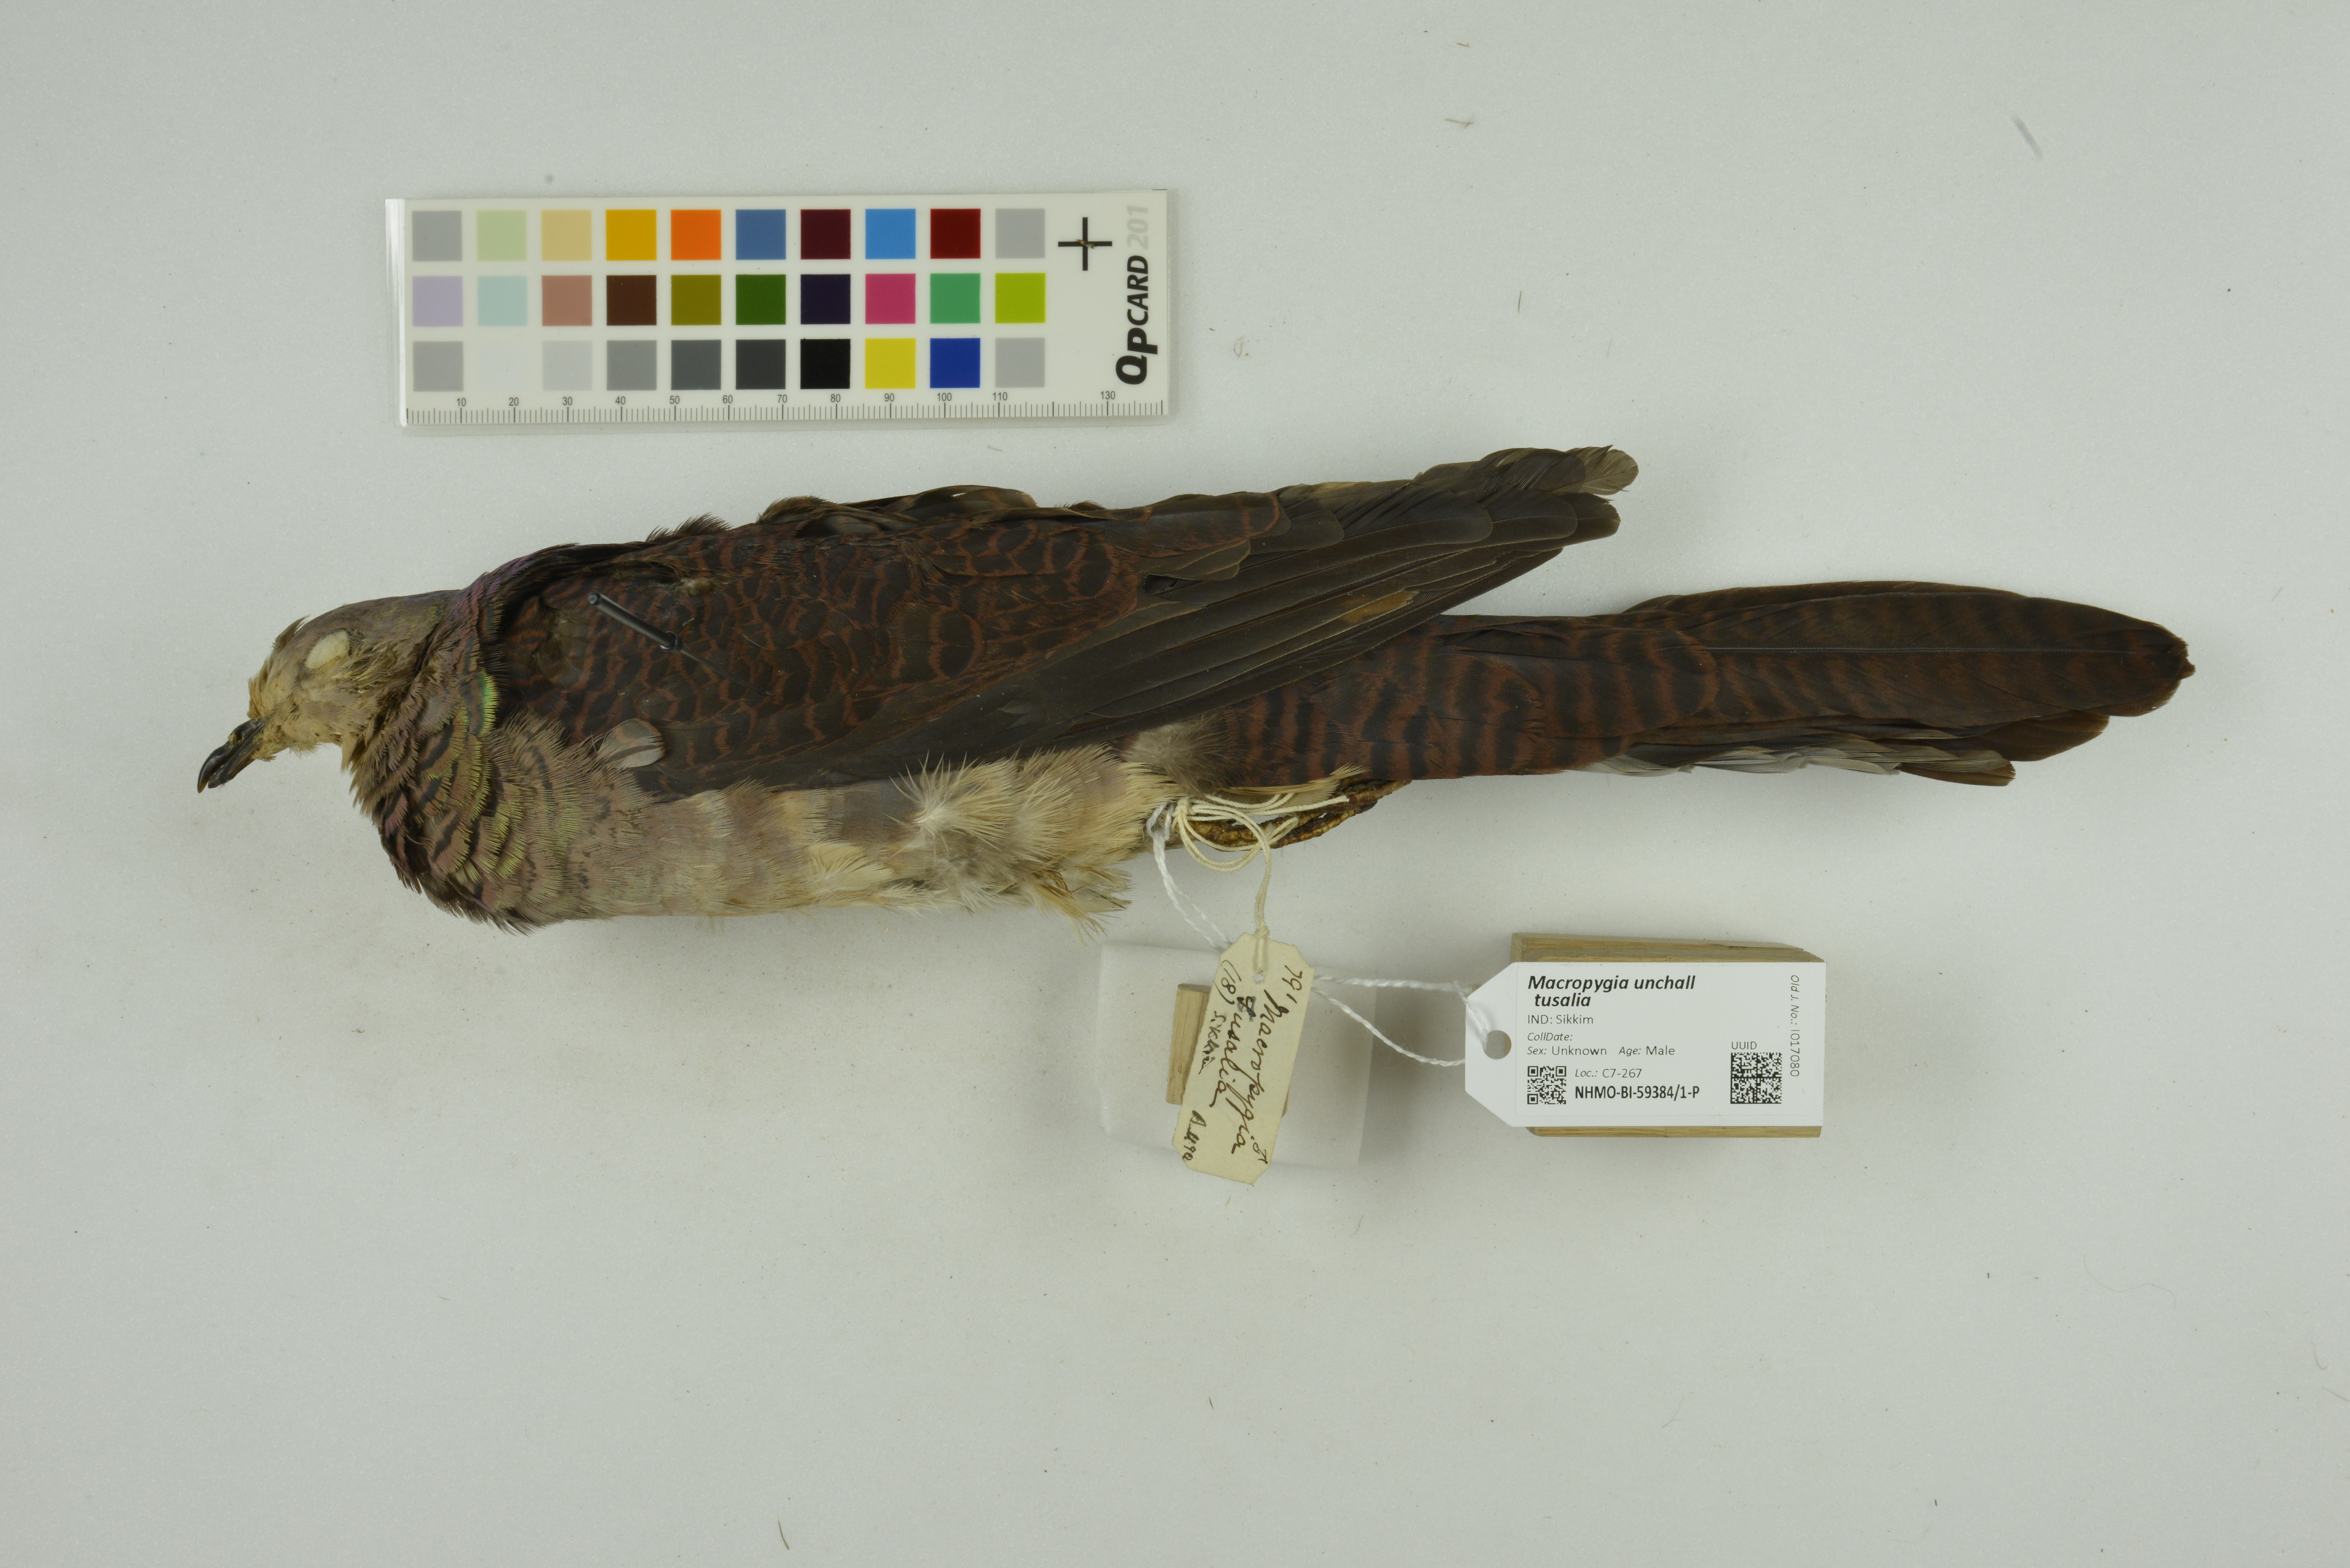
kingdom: Animalia
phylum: Chordata
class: Aves
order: Columbiformes
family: Columbidae
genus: Macropygia
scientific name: Macropygia unchall
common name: Barred cuckoo-dove
